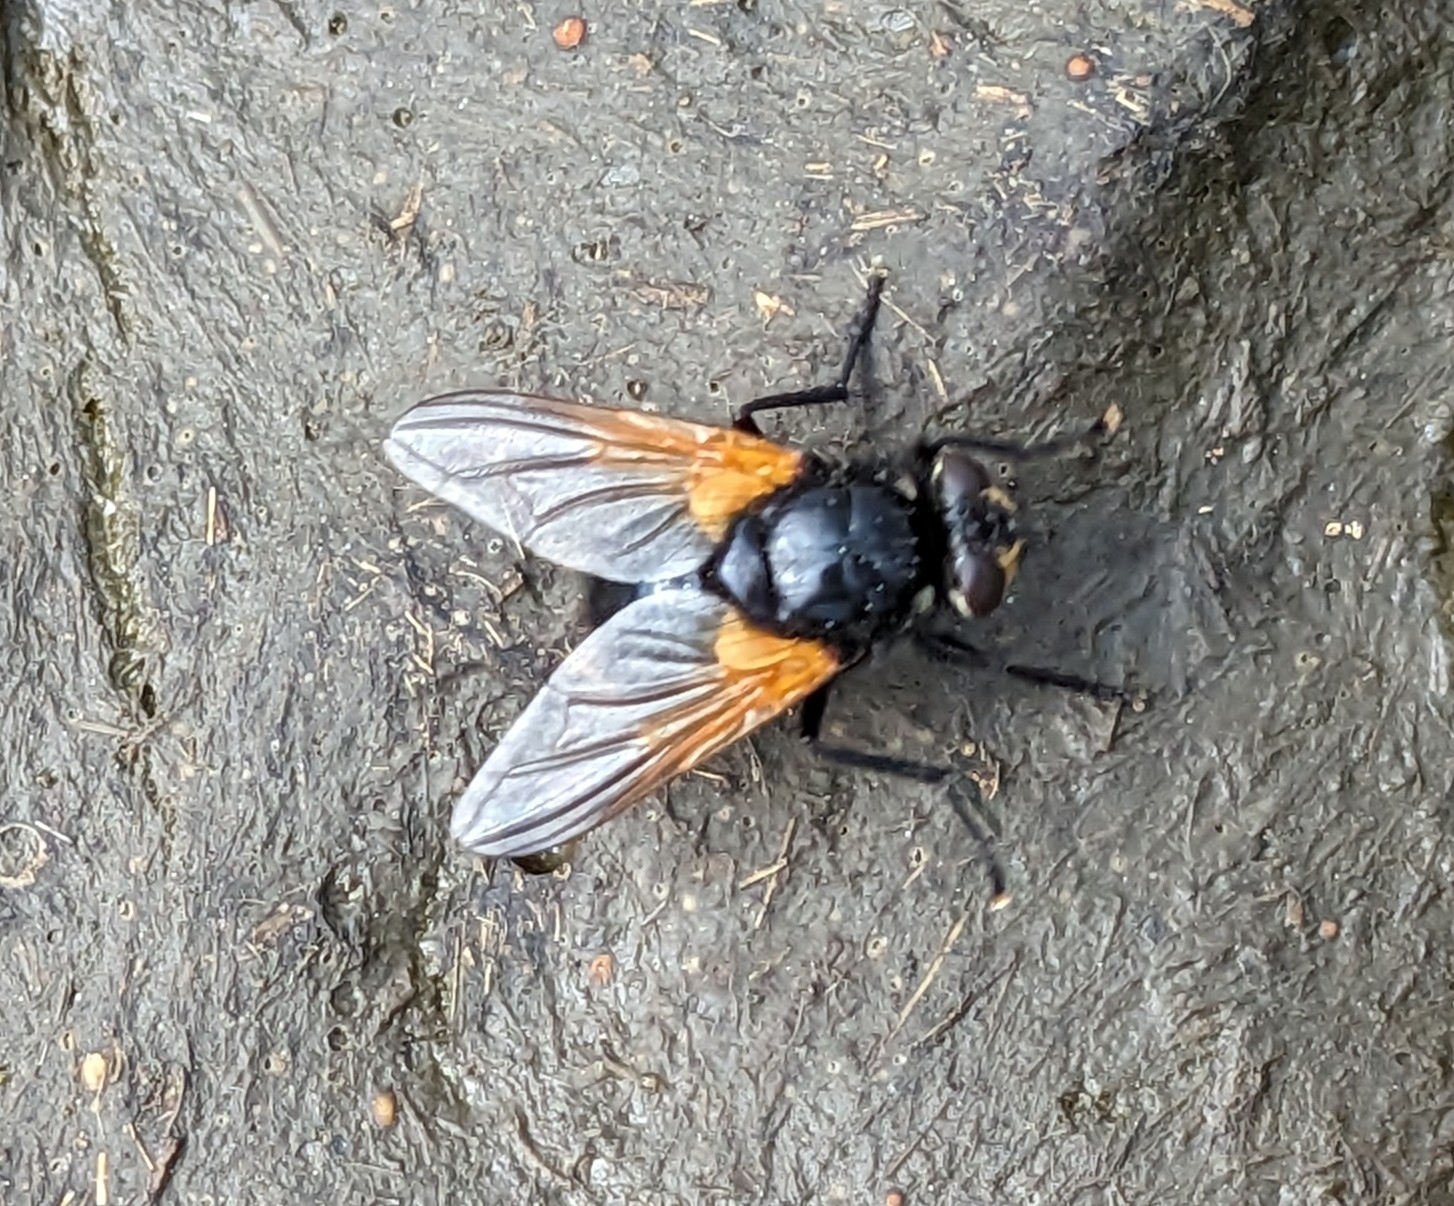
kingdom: Animalia
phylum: Arthropoda
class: Insecta
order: Diptera
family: Muscidae
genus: Mesembrina
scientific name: Mesembrina meridiana
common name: Gulvinget flue
